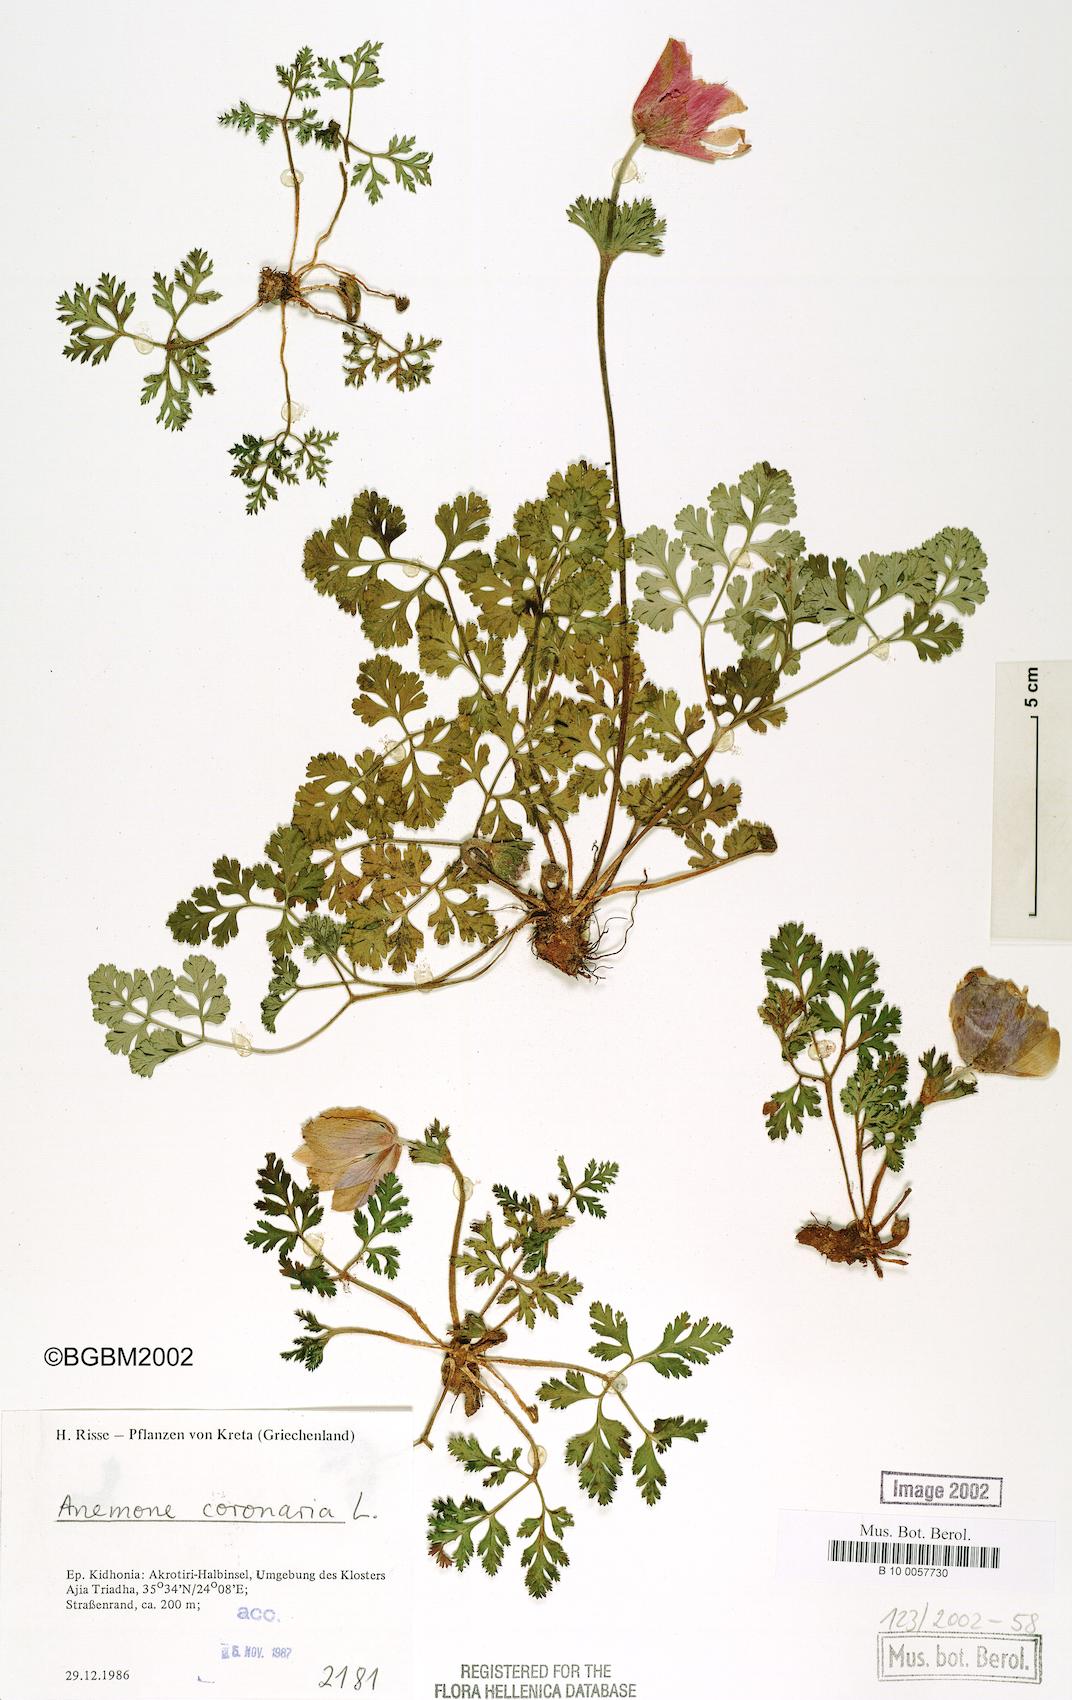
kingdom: Plantae
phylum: Tracheophyta
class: Magnoliopsida
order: Ranunculales
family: Ranunculaceae
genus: Anemone
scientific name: Anemone coronaria
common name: Poppy anemone
